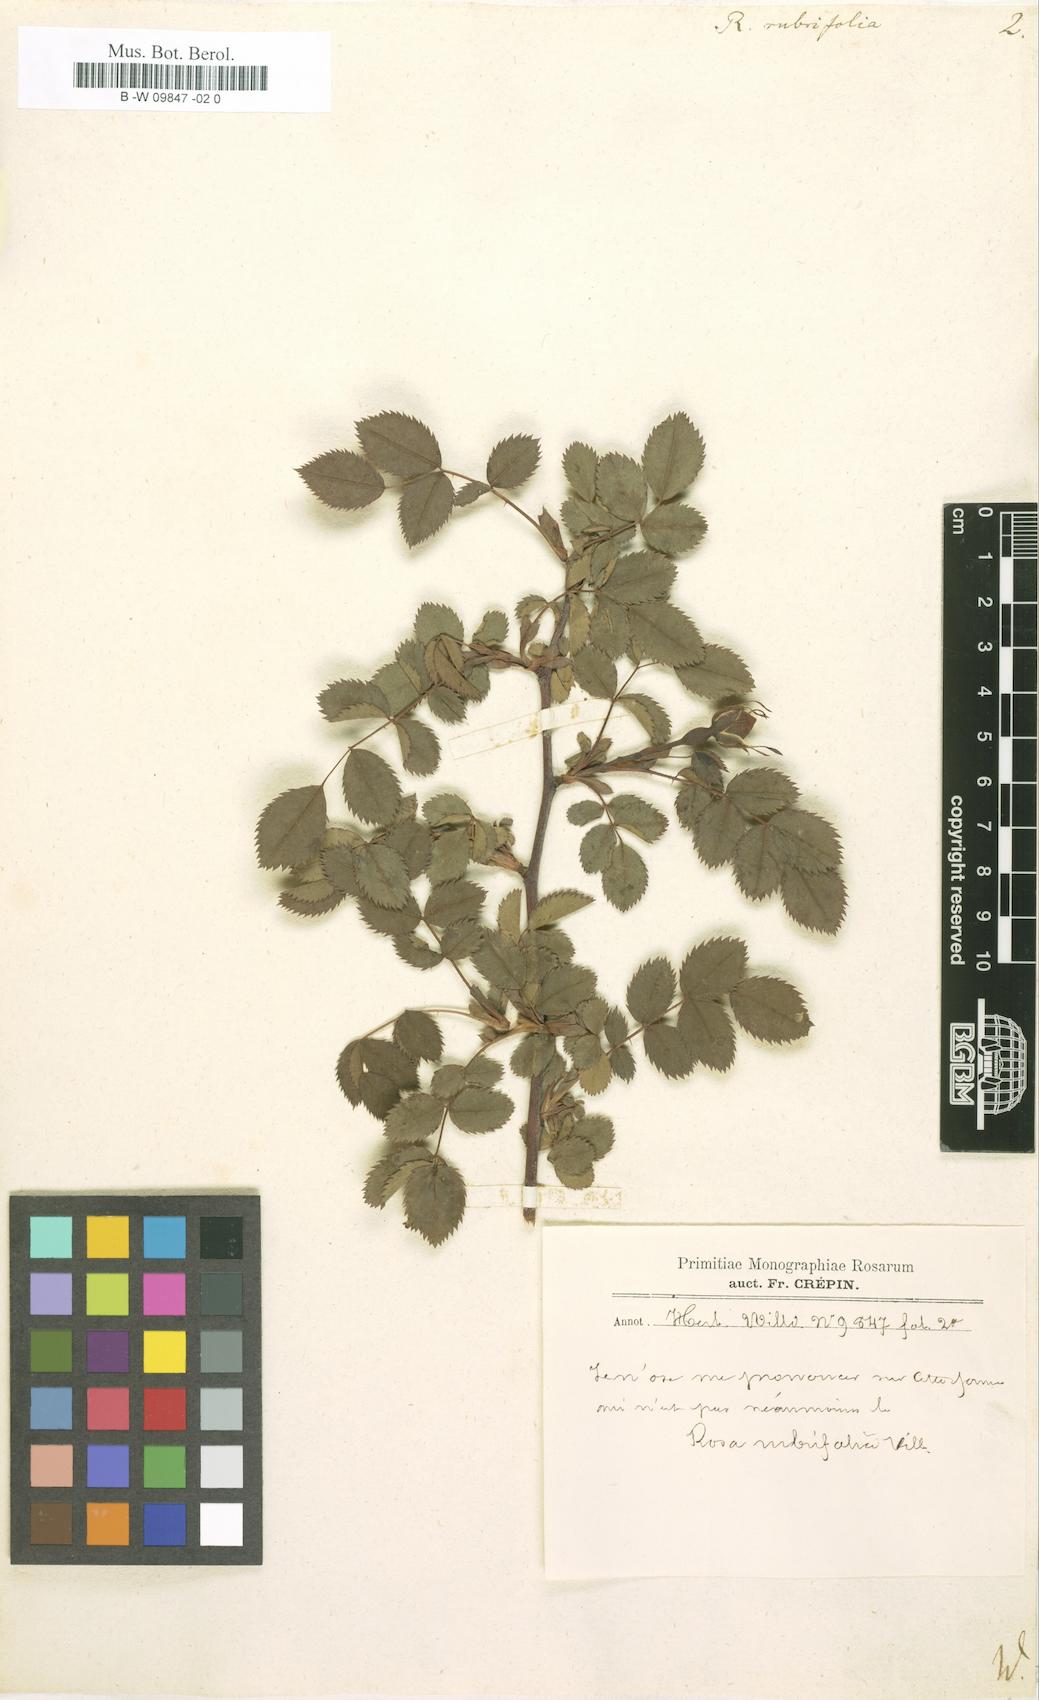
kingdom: Plantae
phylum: Tracheophyta
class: Magnoliopsida
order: Rosales
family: Rosaceae
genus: Rosa
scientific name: Rosa
